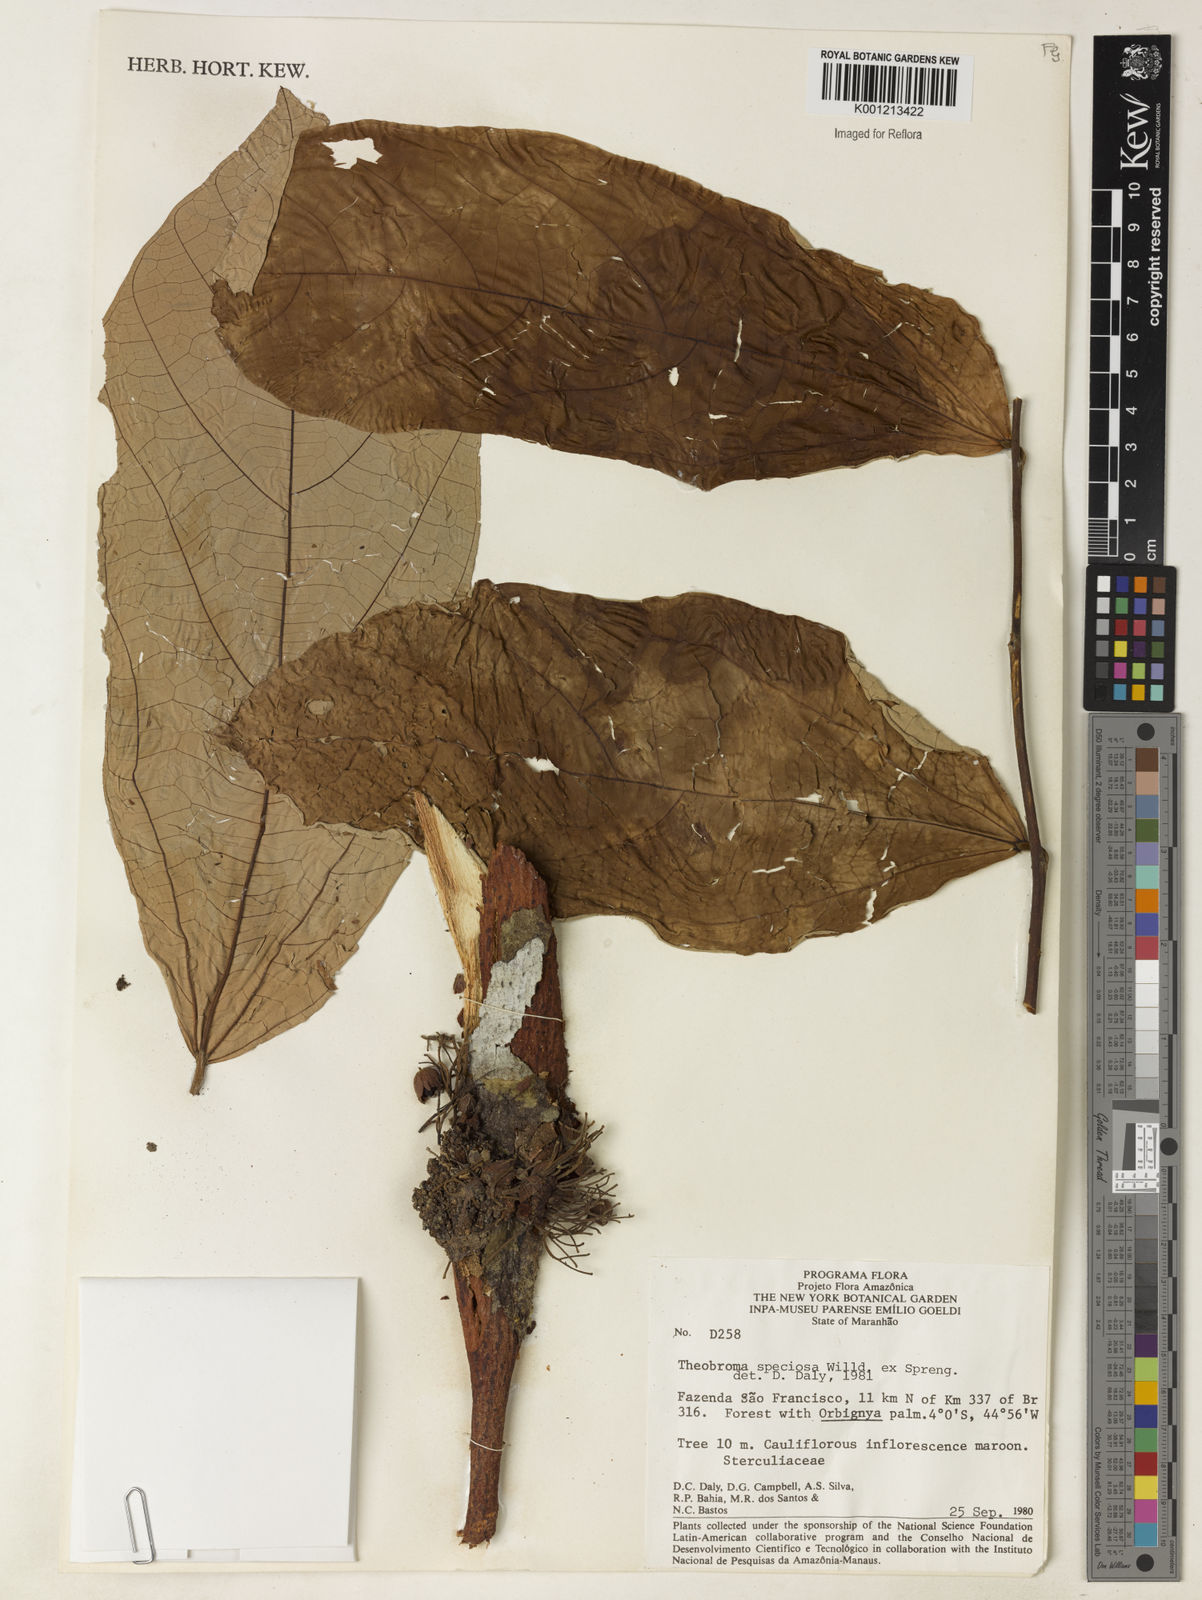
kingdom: Plantae
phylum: Tracheophyta
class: Magnoliopsida
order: Malvales
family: Malvaceae
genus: Theobroma
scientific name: Theobroma speciosum
